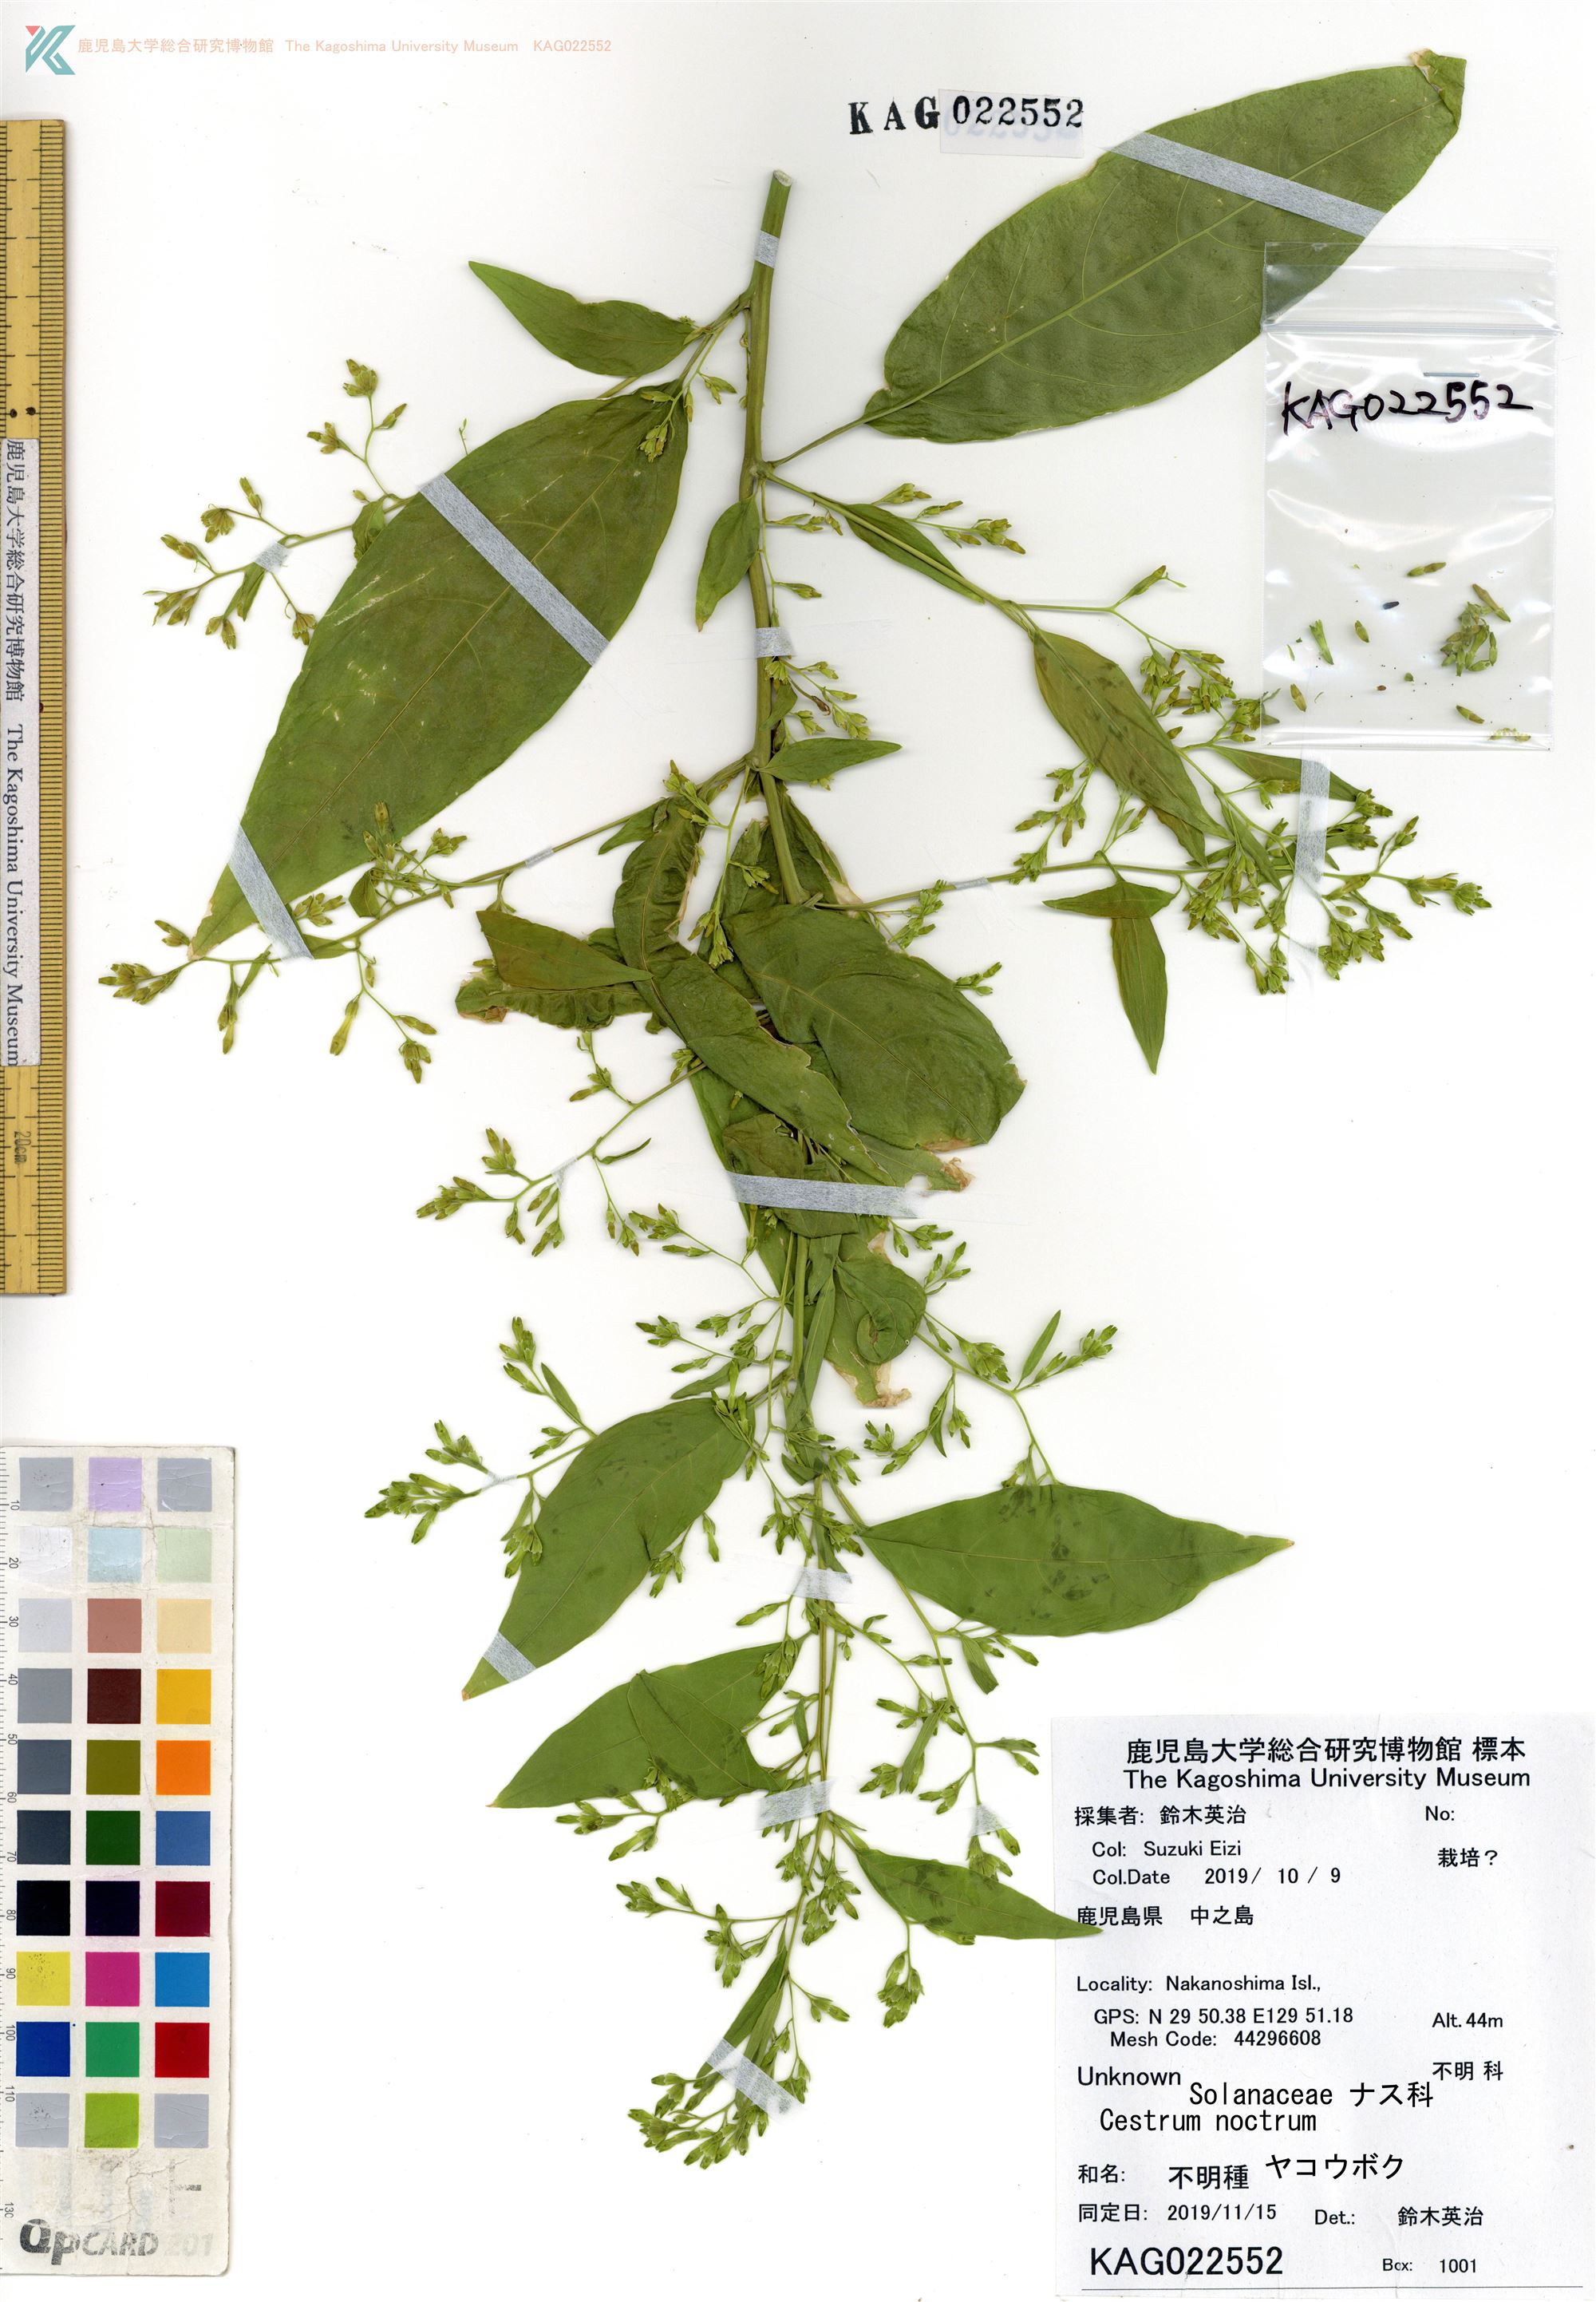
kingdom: Plantae
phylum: Tracheophyta
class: Magnoliopsida
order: Solanales
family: Solanaceae
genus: Cestrum
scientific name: Cestrum nocturnum
